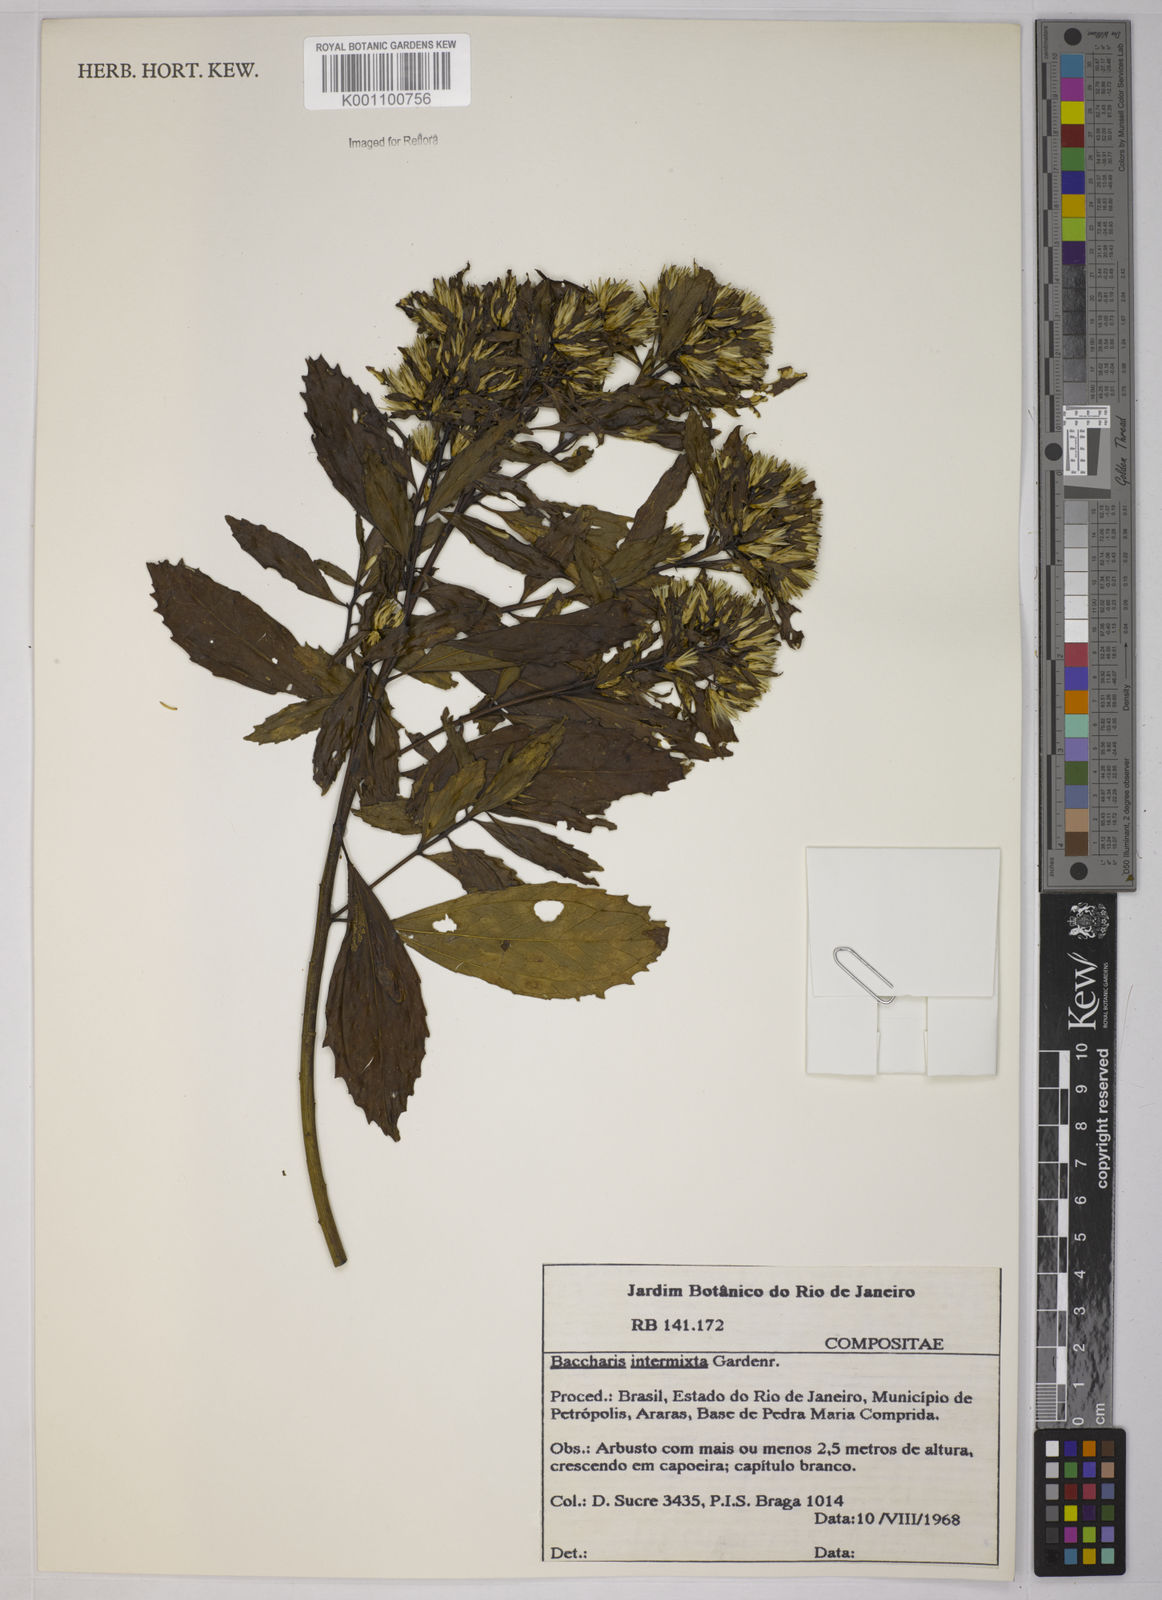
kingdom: Plantae
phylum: Tracheophyta
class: Magnoliopsida
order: Asterales
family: Asteraceae
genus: Baccharis
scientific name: Baccharis intermixta
